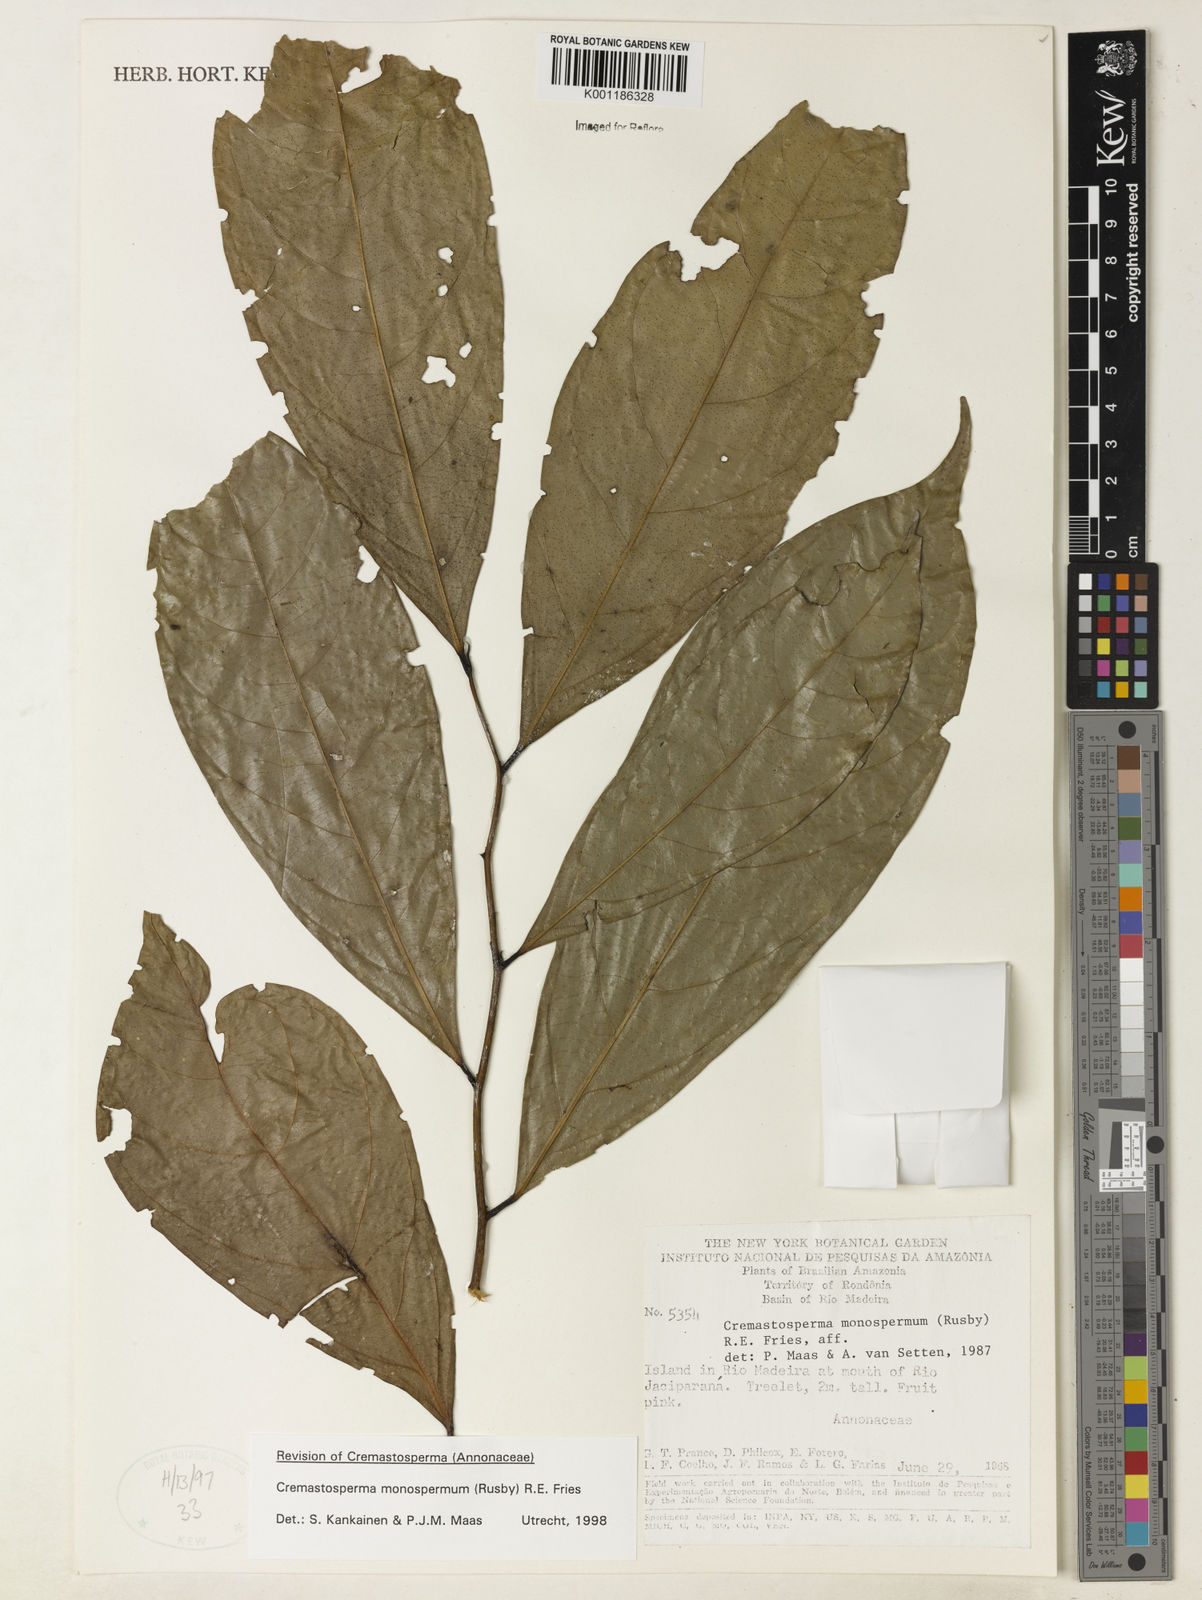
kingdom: Plantae
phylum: Tracheophyta
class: Magnoliopsida
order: Magnoliales
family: Annonaceae
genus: Cremastosperma
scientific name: Cremastosperma monospermum
